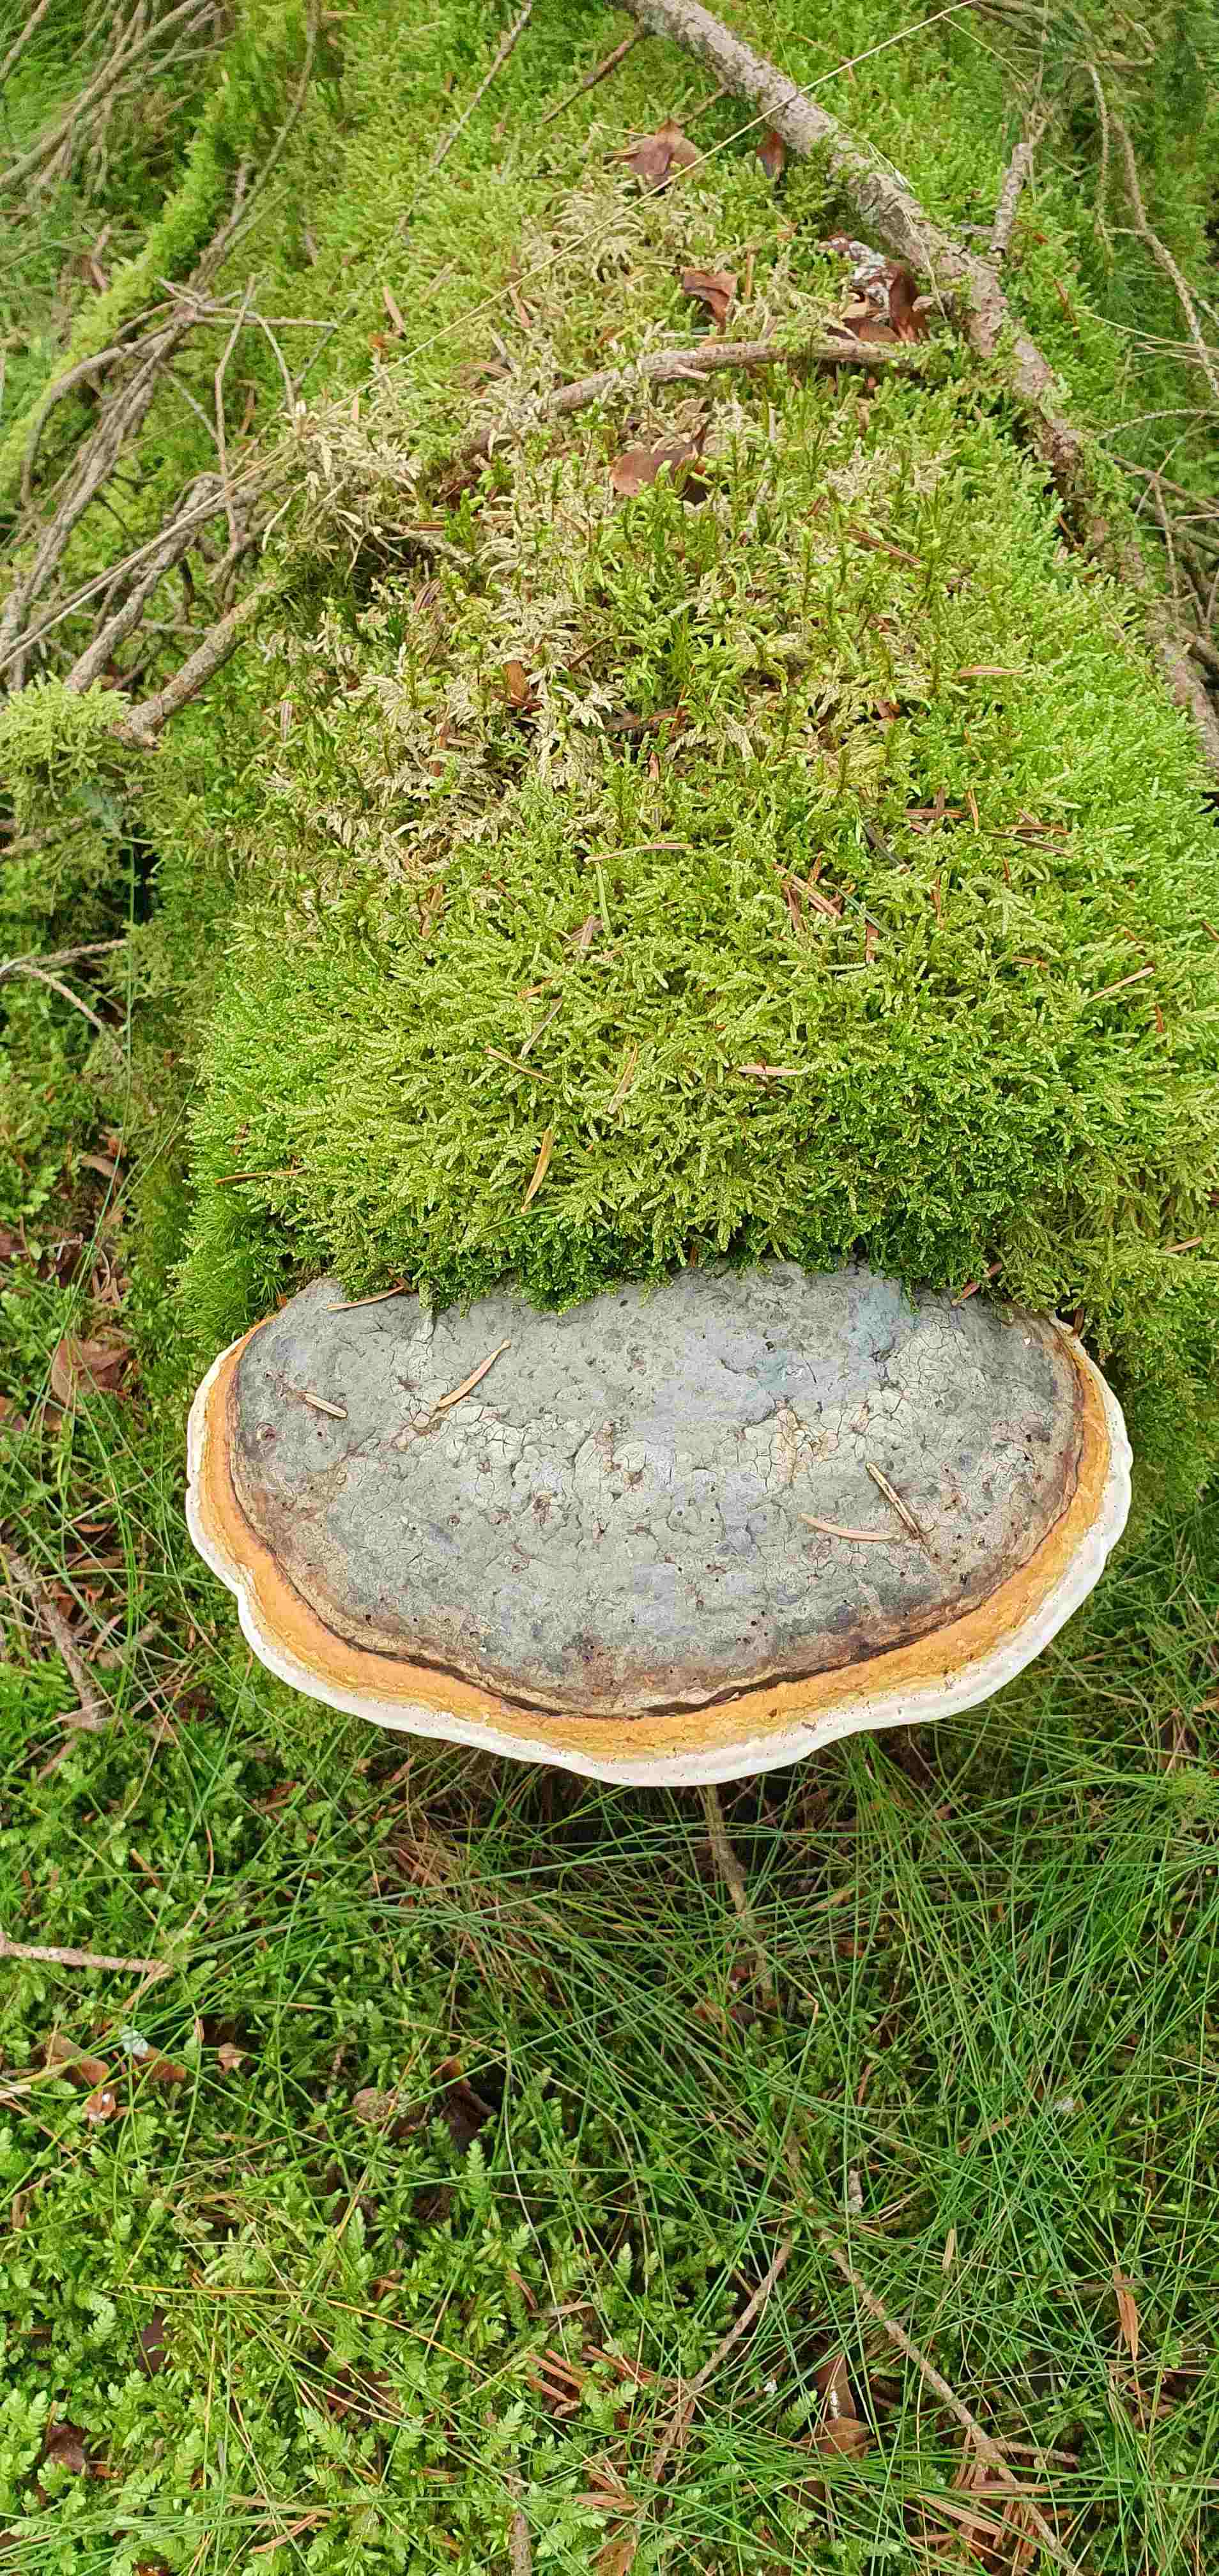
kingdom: Fungi
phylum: Basidiomycota
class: Agaricomycetes
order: Polyporales
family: Fomitopsidaceae
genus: Fomitopsis
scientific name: Fomitopsis pinicola
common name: randbæltet hovporesvamp
